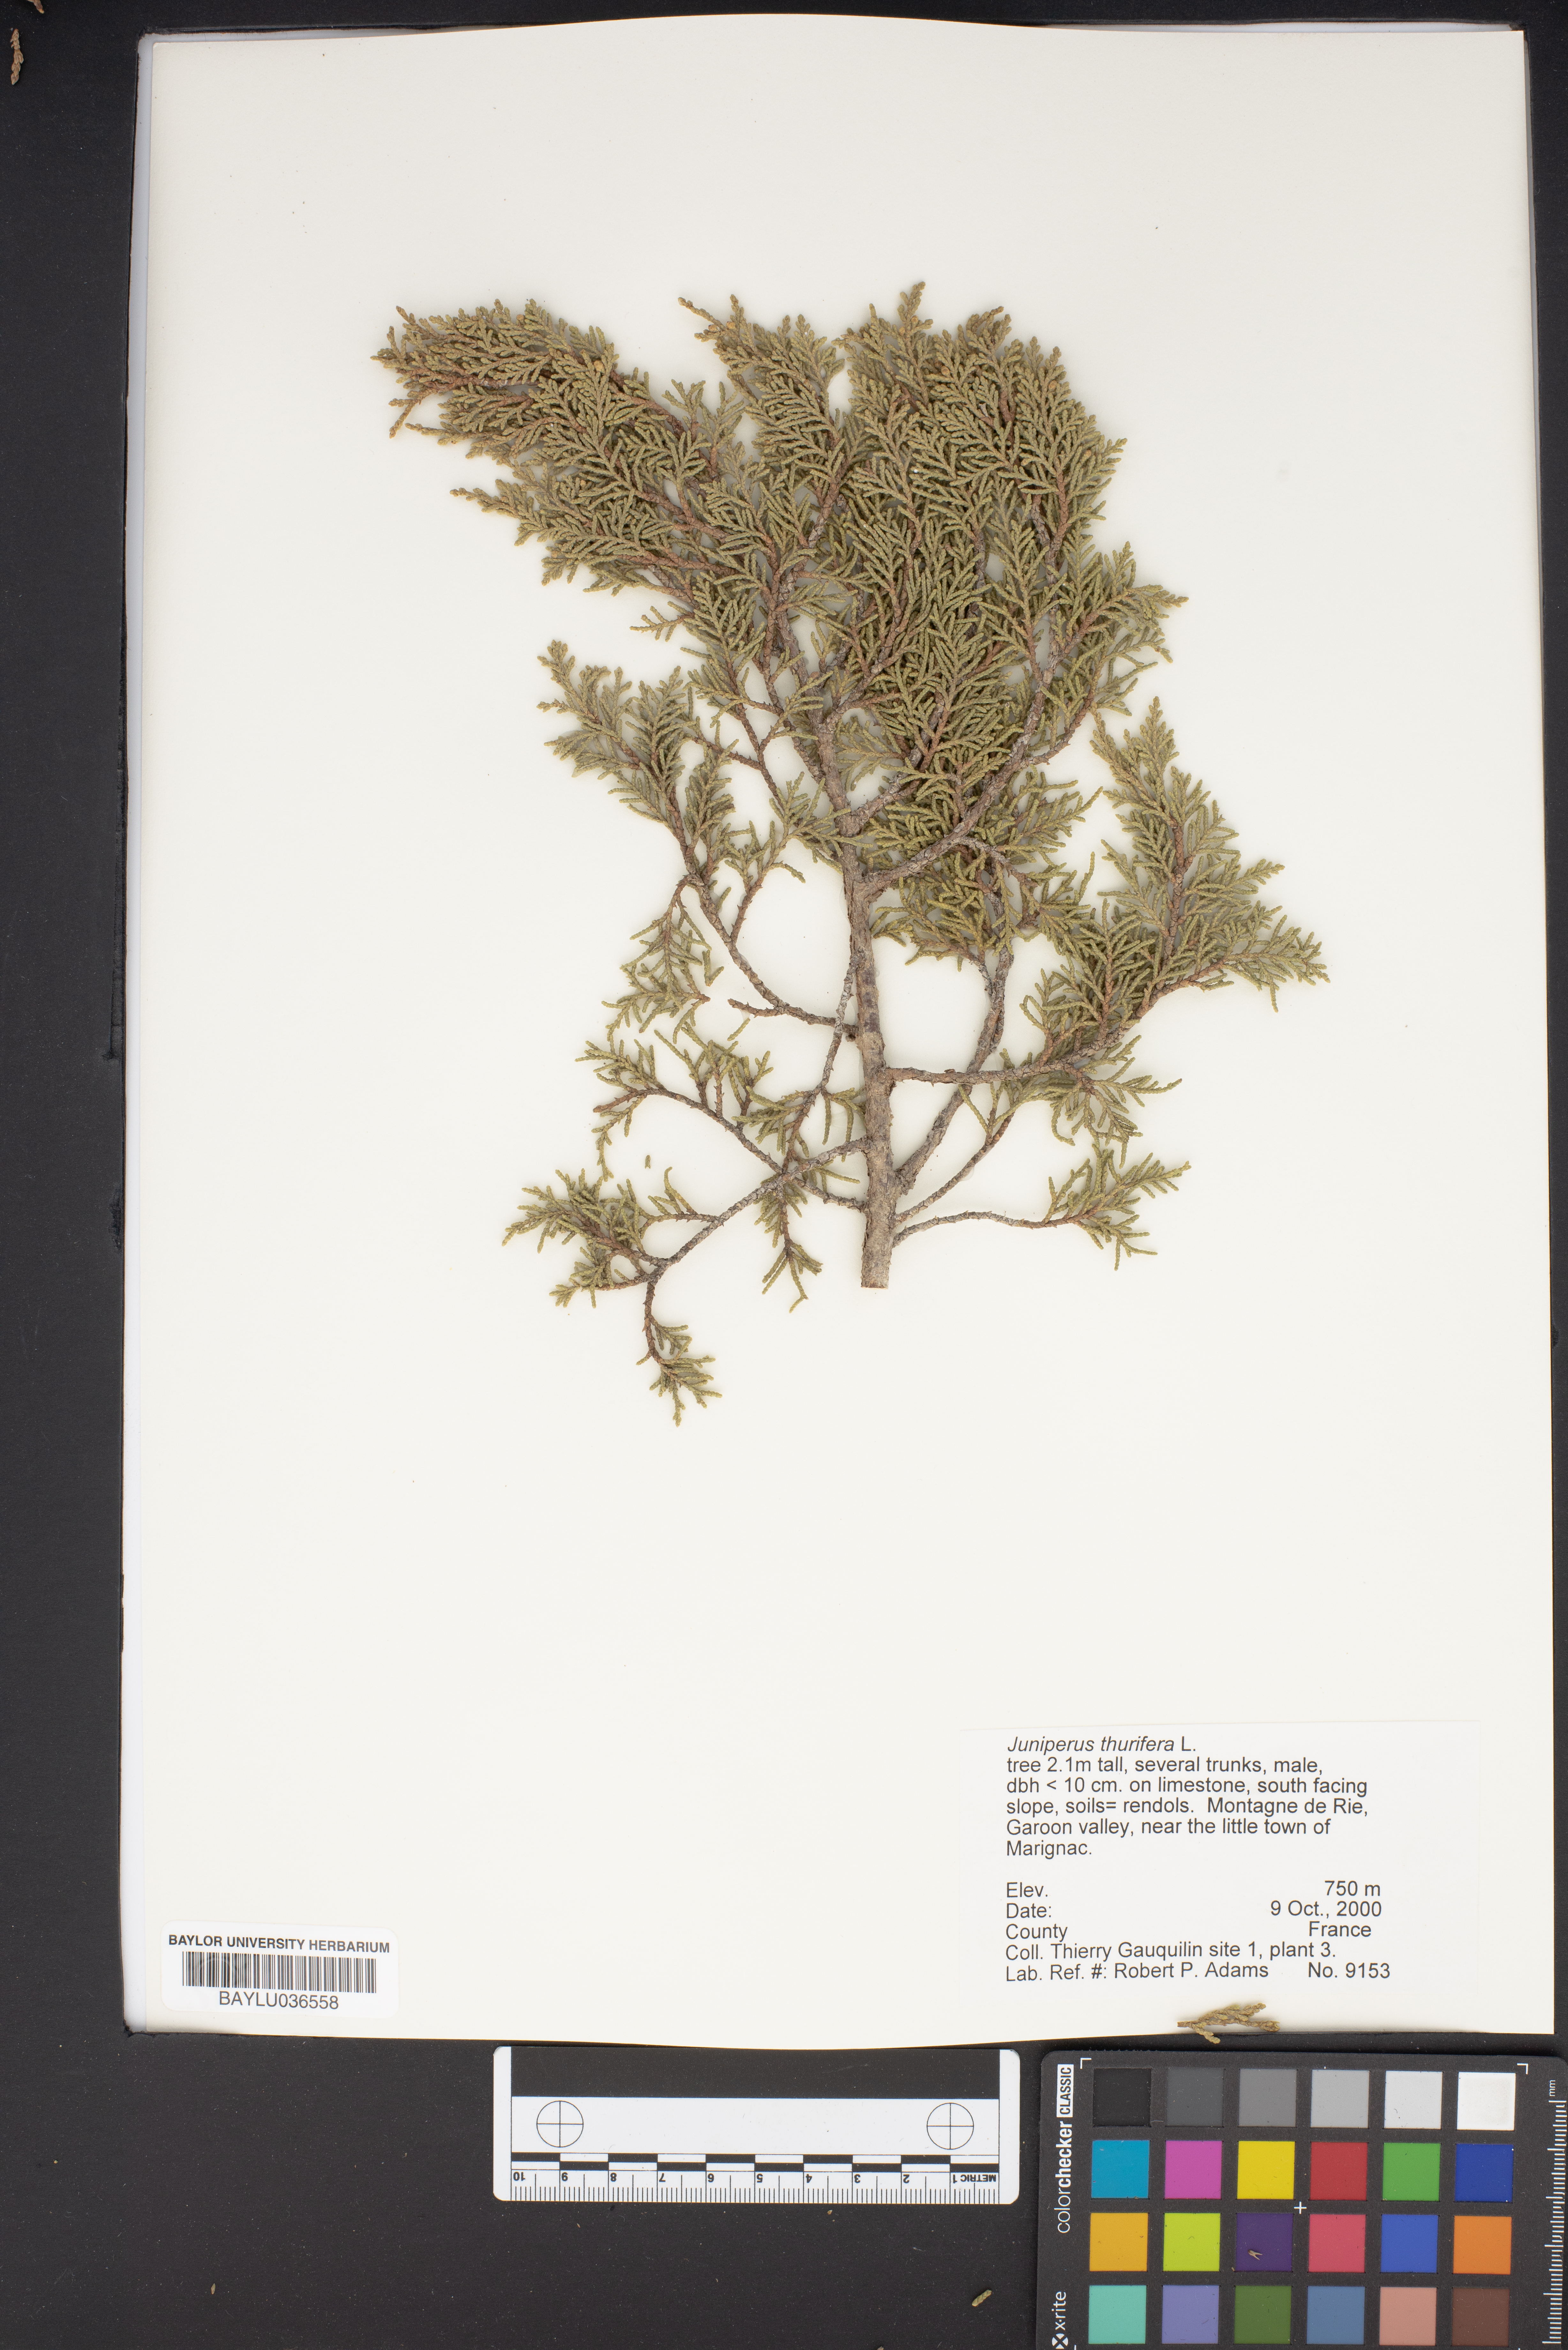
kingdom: Plantae
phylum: Tracheophyta
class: Pinopsida
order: Pinales
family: Cupressaceae
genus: Juniperus
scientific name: Juniperus thurifera
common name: Incense juniper
